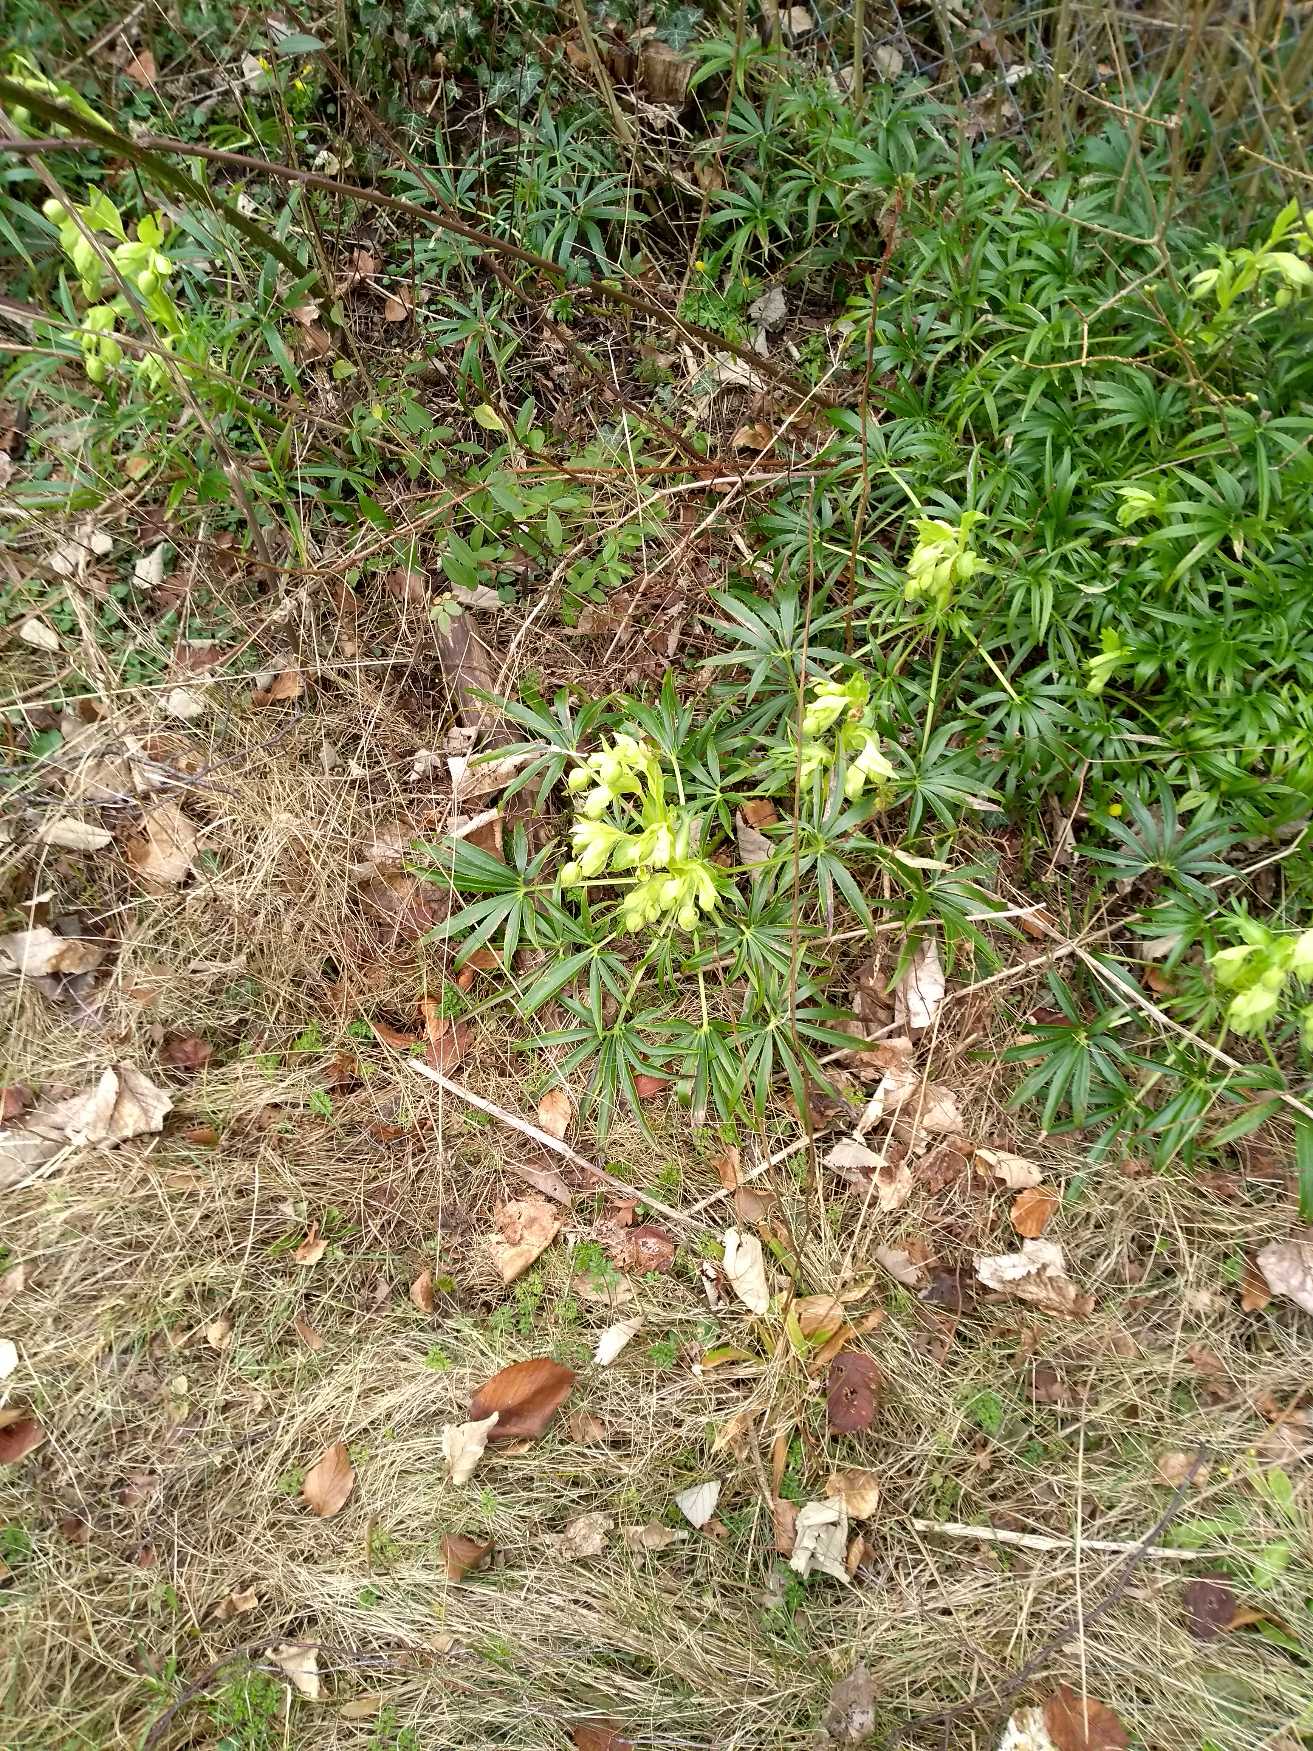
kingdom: Plantae
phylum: Tracheophyta
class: Magnoliopsida
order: Ranunculales
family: Ranunculaceae
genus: Helleborus
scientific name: Helleborus foetidus
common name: Stinkende julerose
